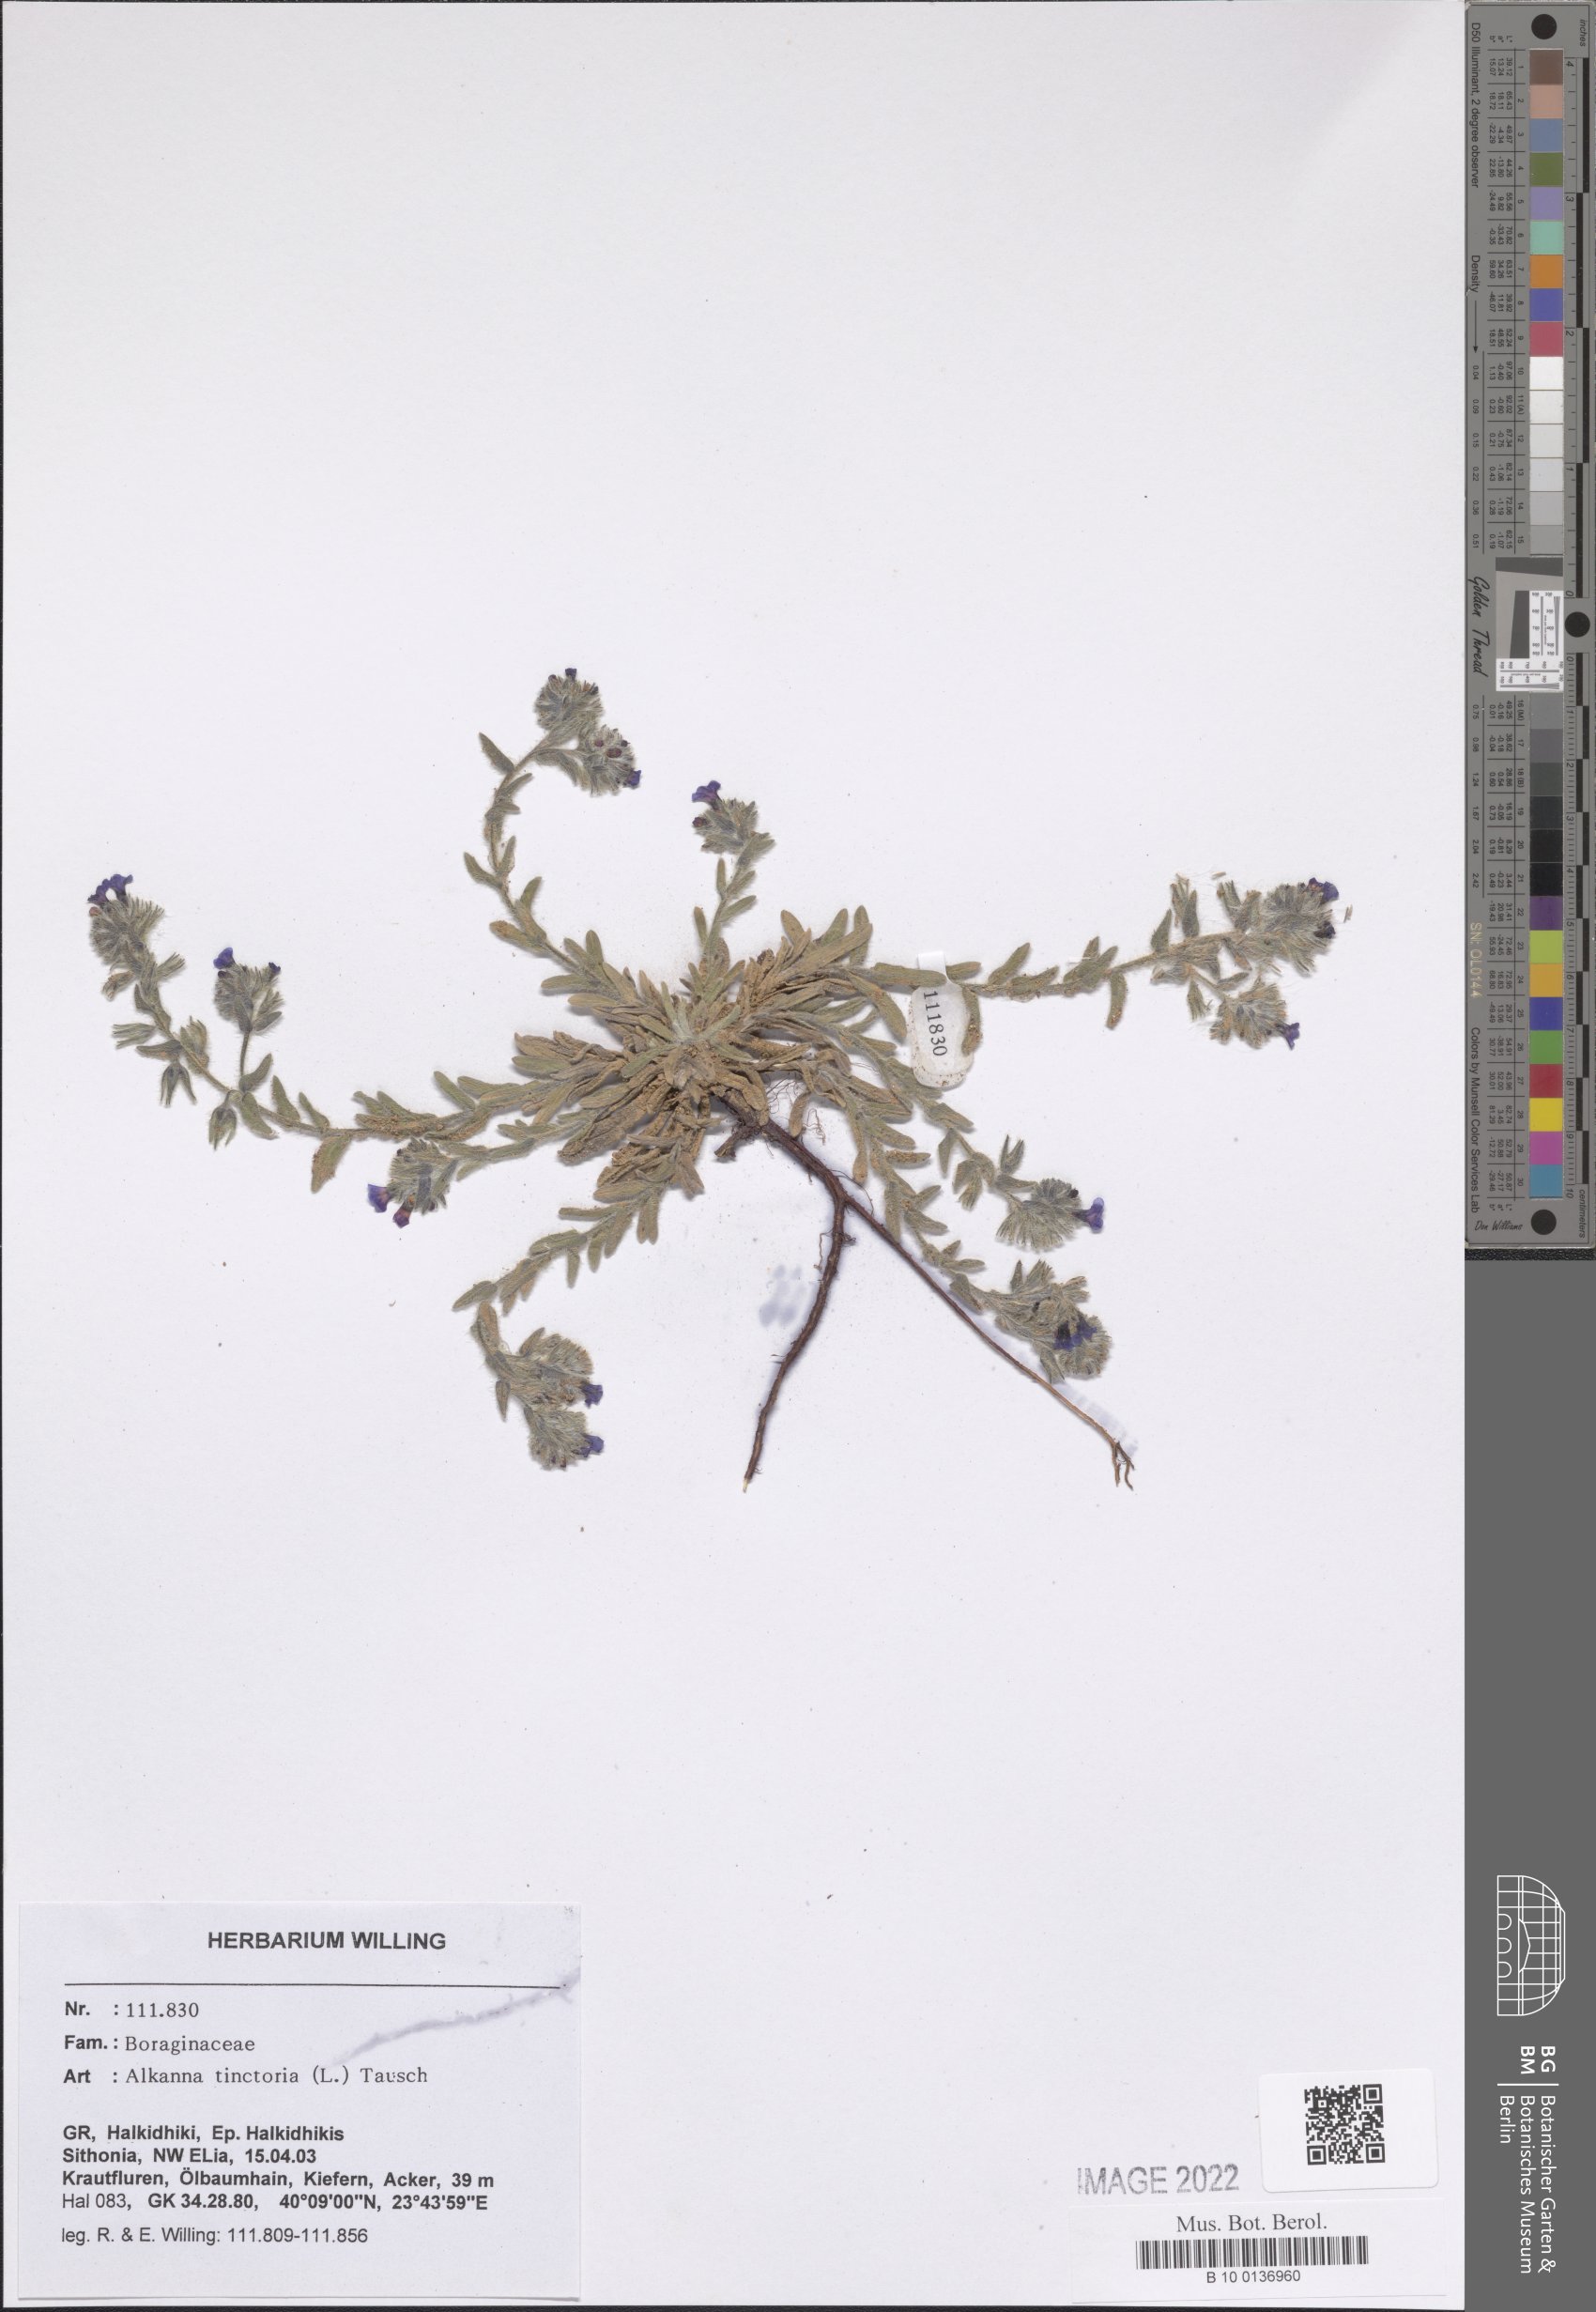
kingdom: Plantae
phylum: Tracheophyta
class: Magnoliopsida
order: Boraginales
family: Boraginaceae
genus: Alkanna
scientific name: Alkanna tinctoria
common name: Dyer's-alkanet
